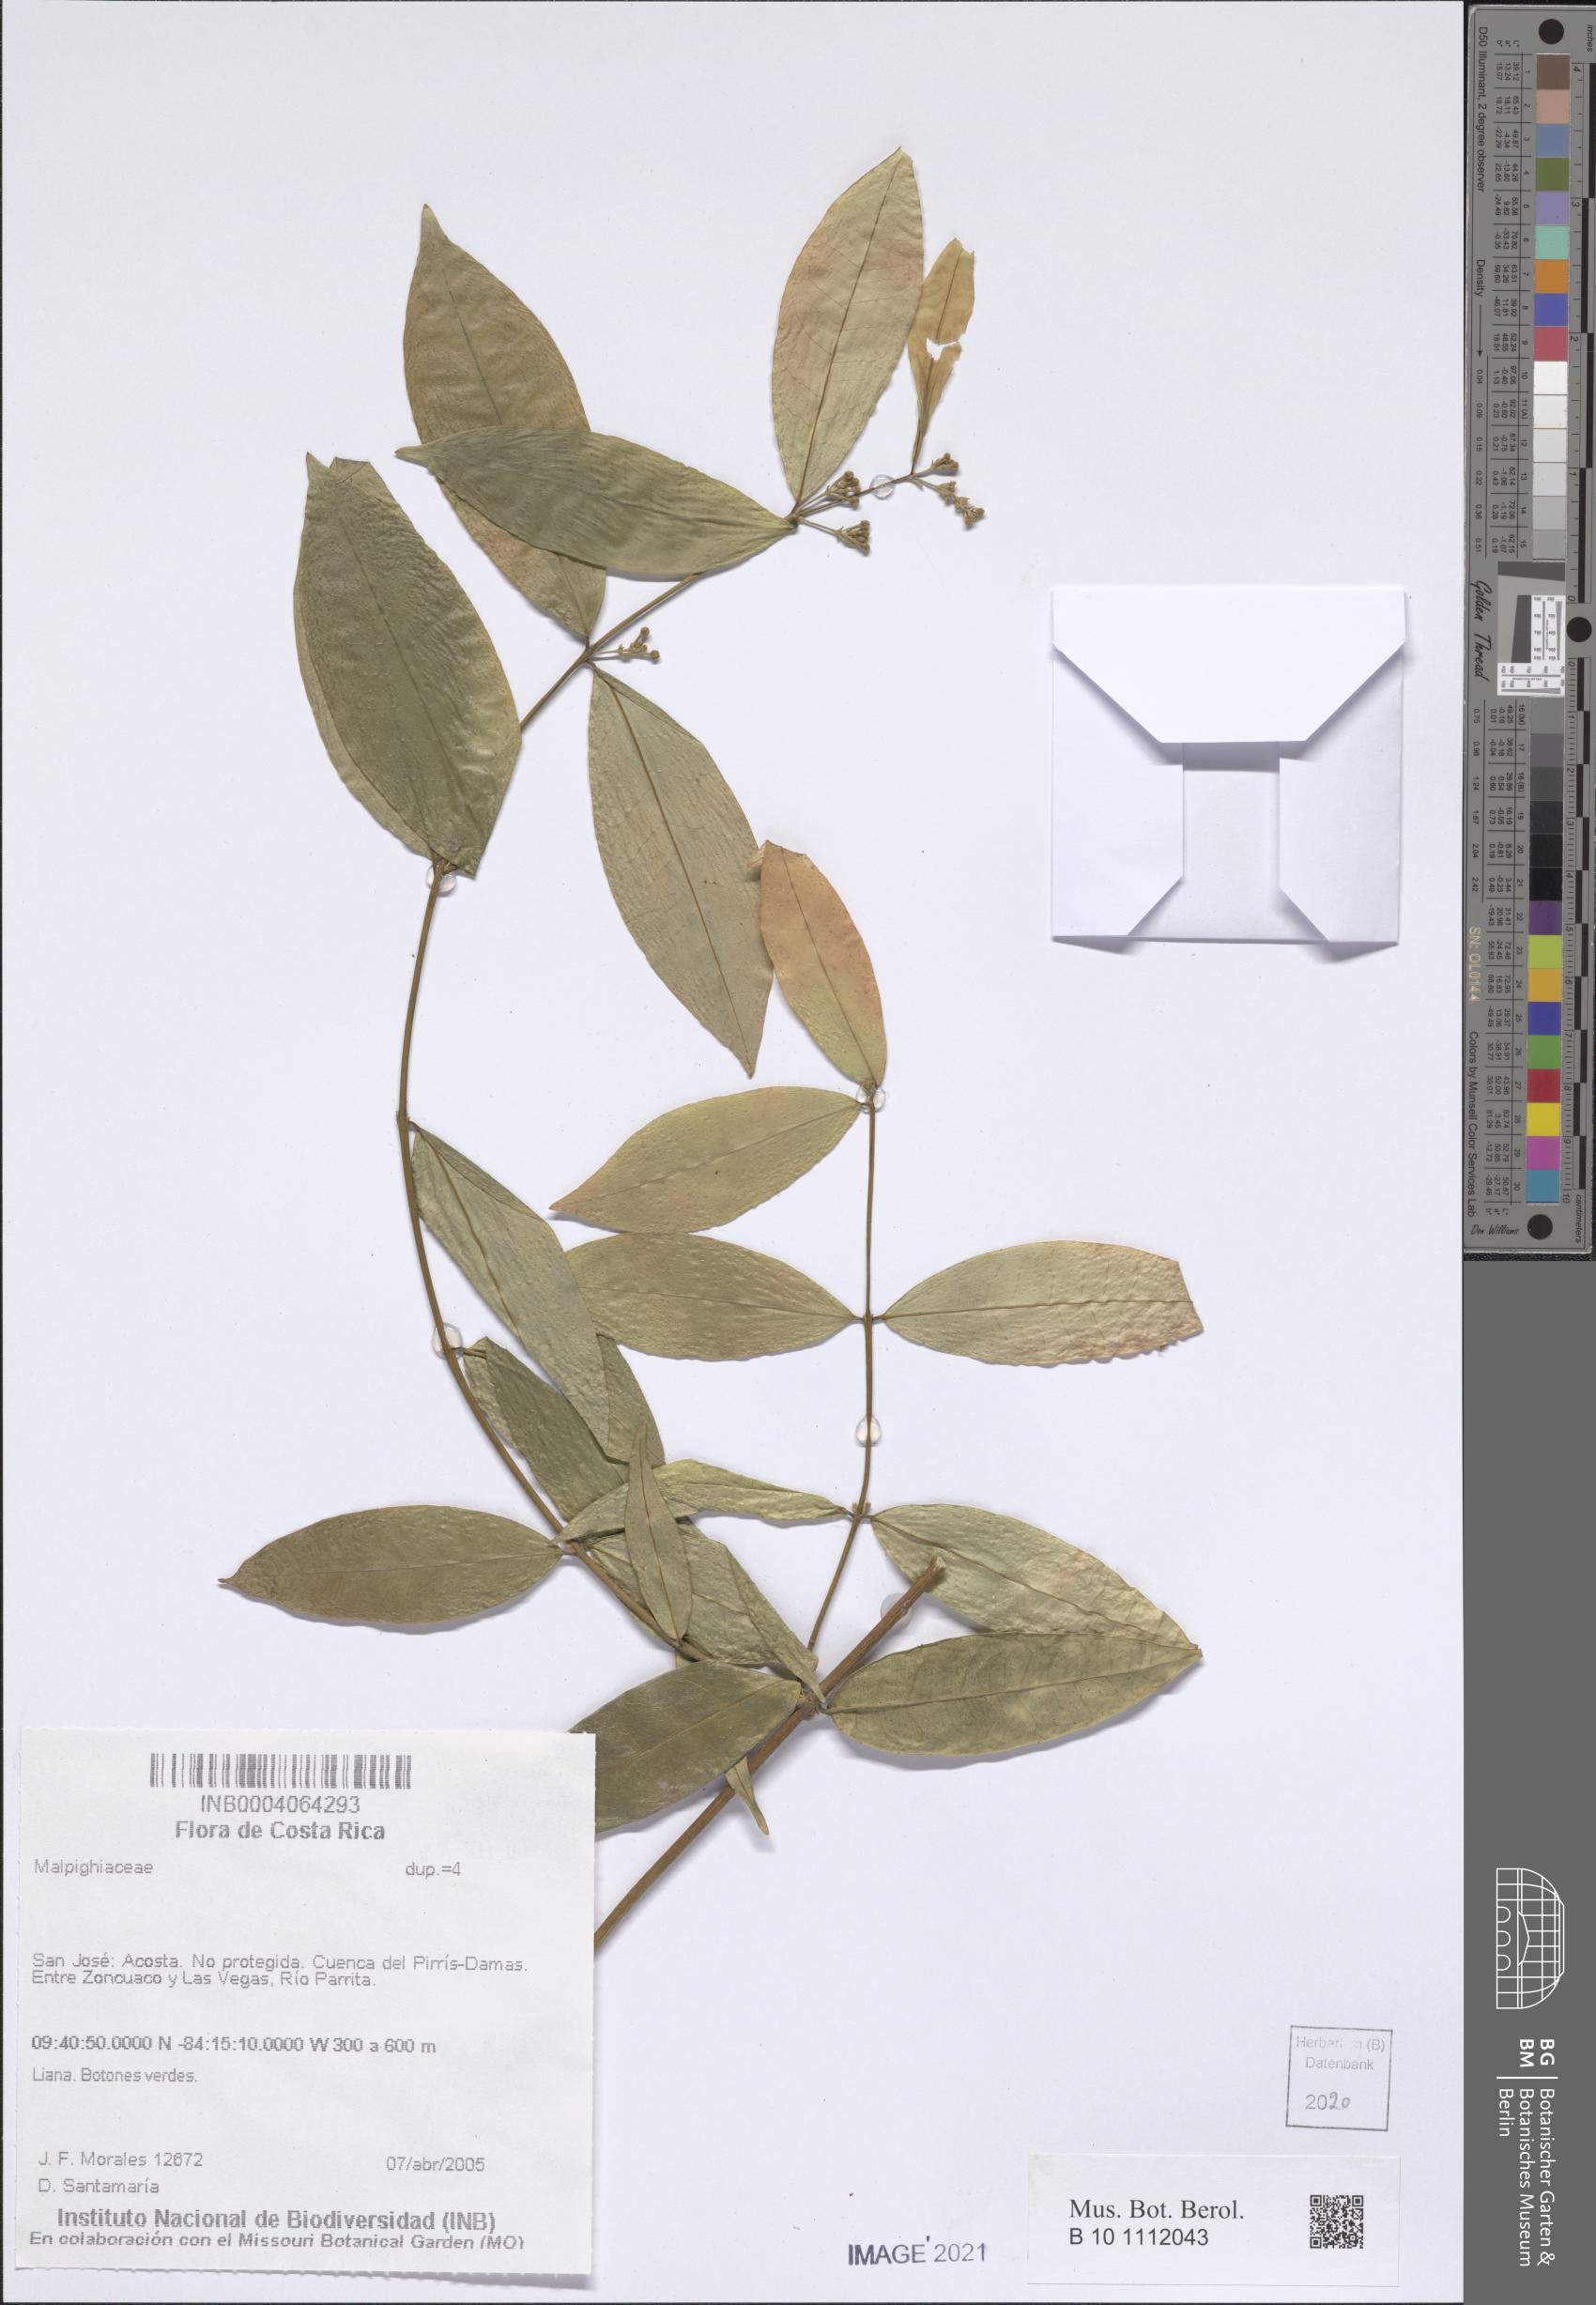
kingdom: Plantae
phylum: Tracheophyta
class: Magnoliopsida
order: Malpighiales
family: Malpighiaceae
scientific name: Malpighiaceae
